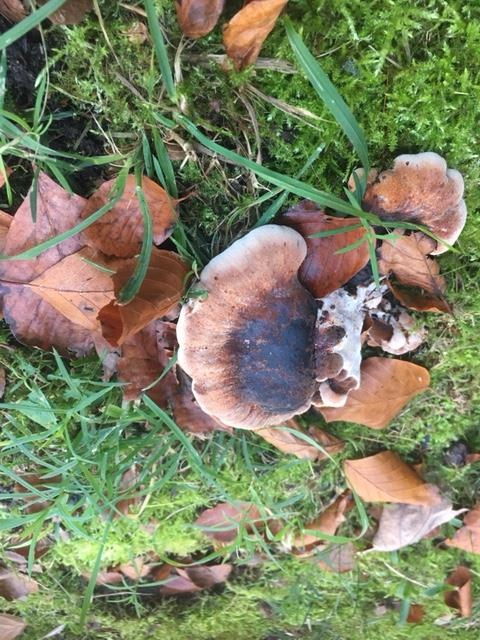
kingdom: Fungi
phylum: Basidiomycota
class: Agaricomycetes
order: Polyporales
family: Ischnodermataceae
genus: Ischnoderma
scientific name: Ischnoderma resinosum
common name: løv-tjæreporesvamp
